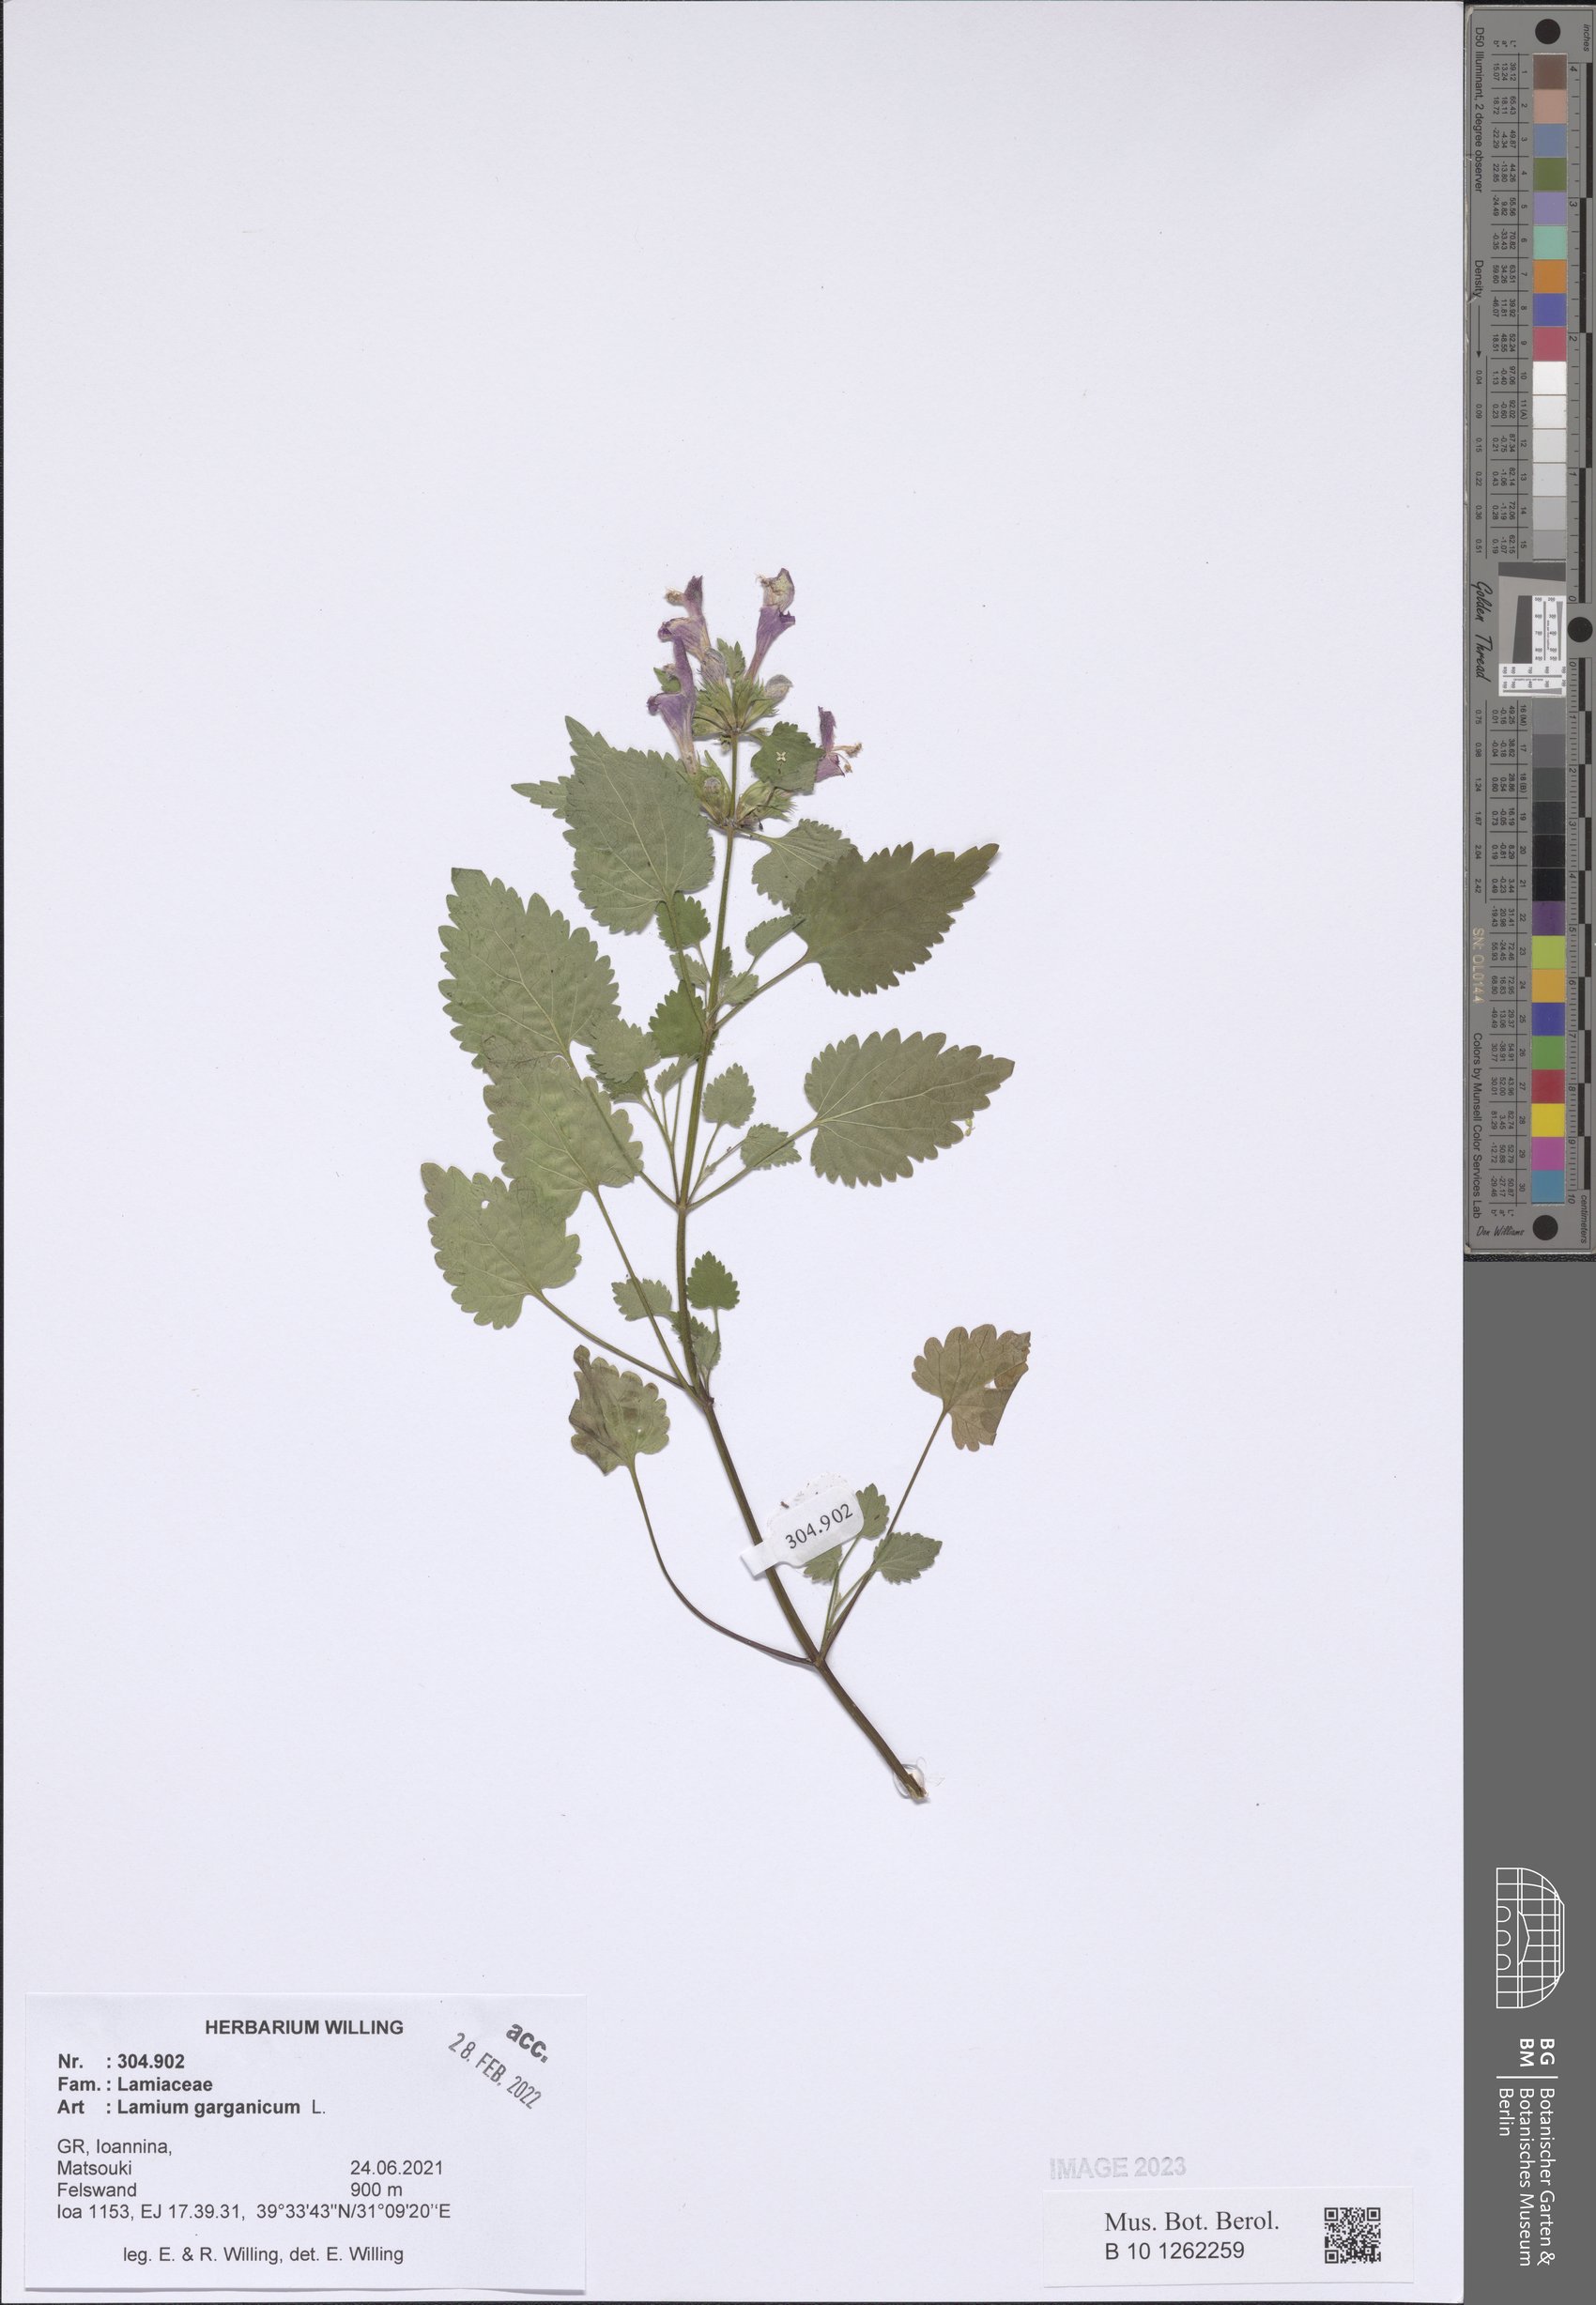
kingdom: Plantae
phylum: Tracheophyta
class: Magnoliopsida
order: Lamiales
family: Lamiaceae
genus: Lamium
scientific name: Lamium garganicum
